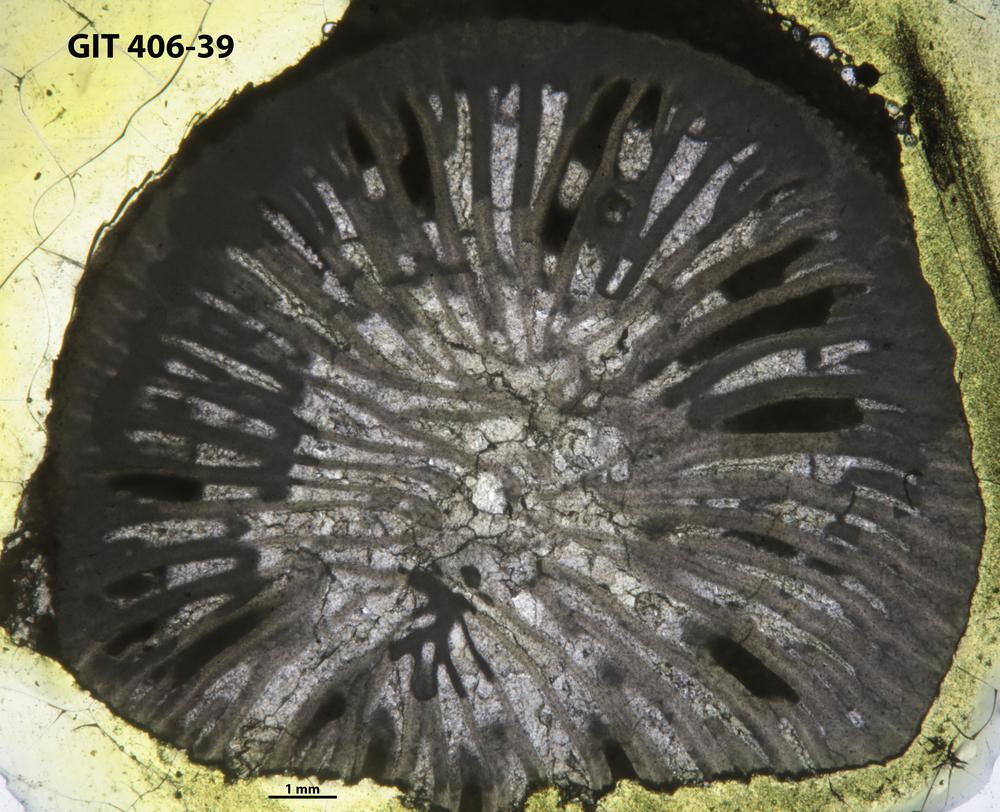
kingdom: Animalia
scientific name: Animalia
